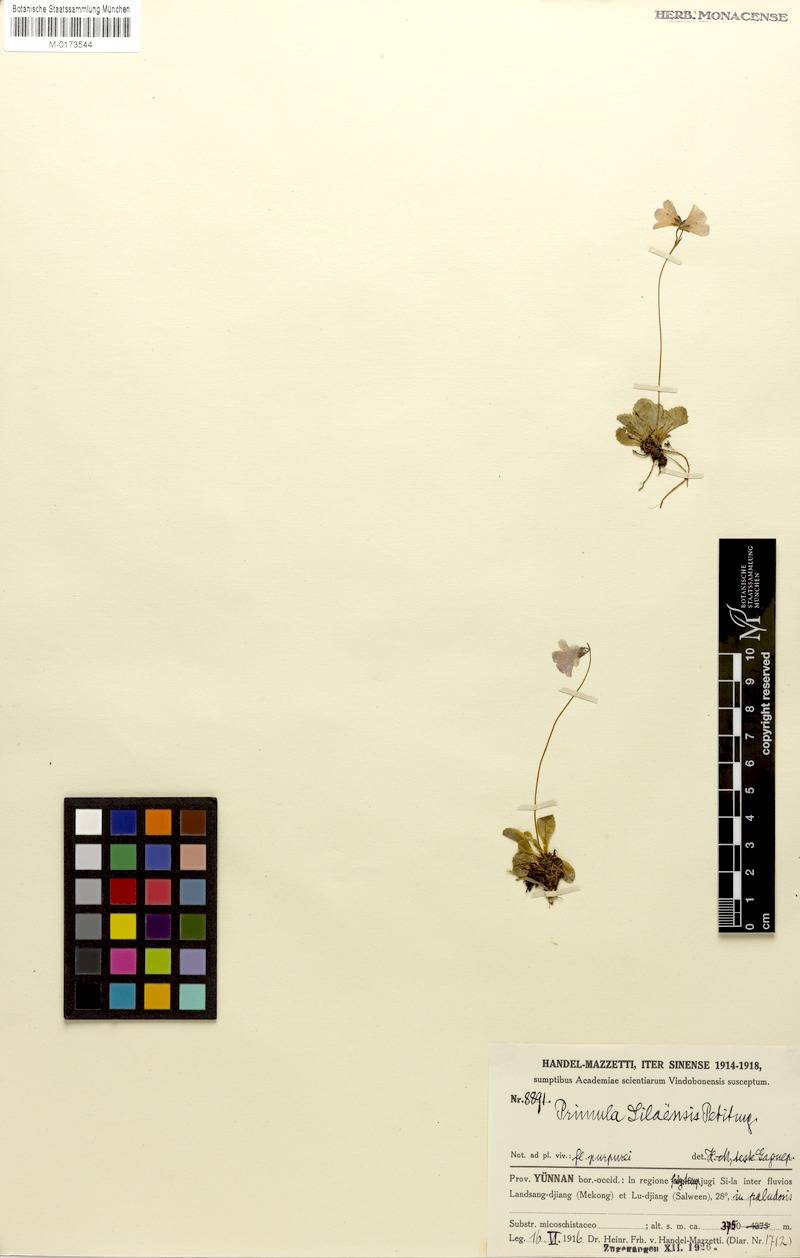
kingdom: Plantae
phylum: Tracheophyta
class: Magnoliopsida
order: Ericales
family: Primulaceae
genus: Primula
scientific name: Primula silaensis
